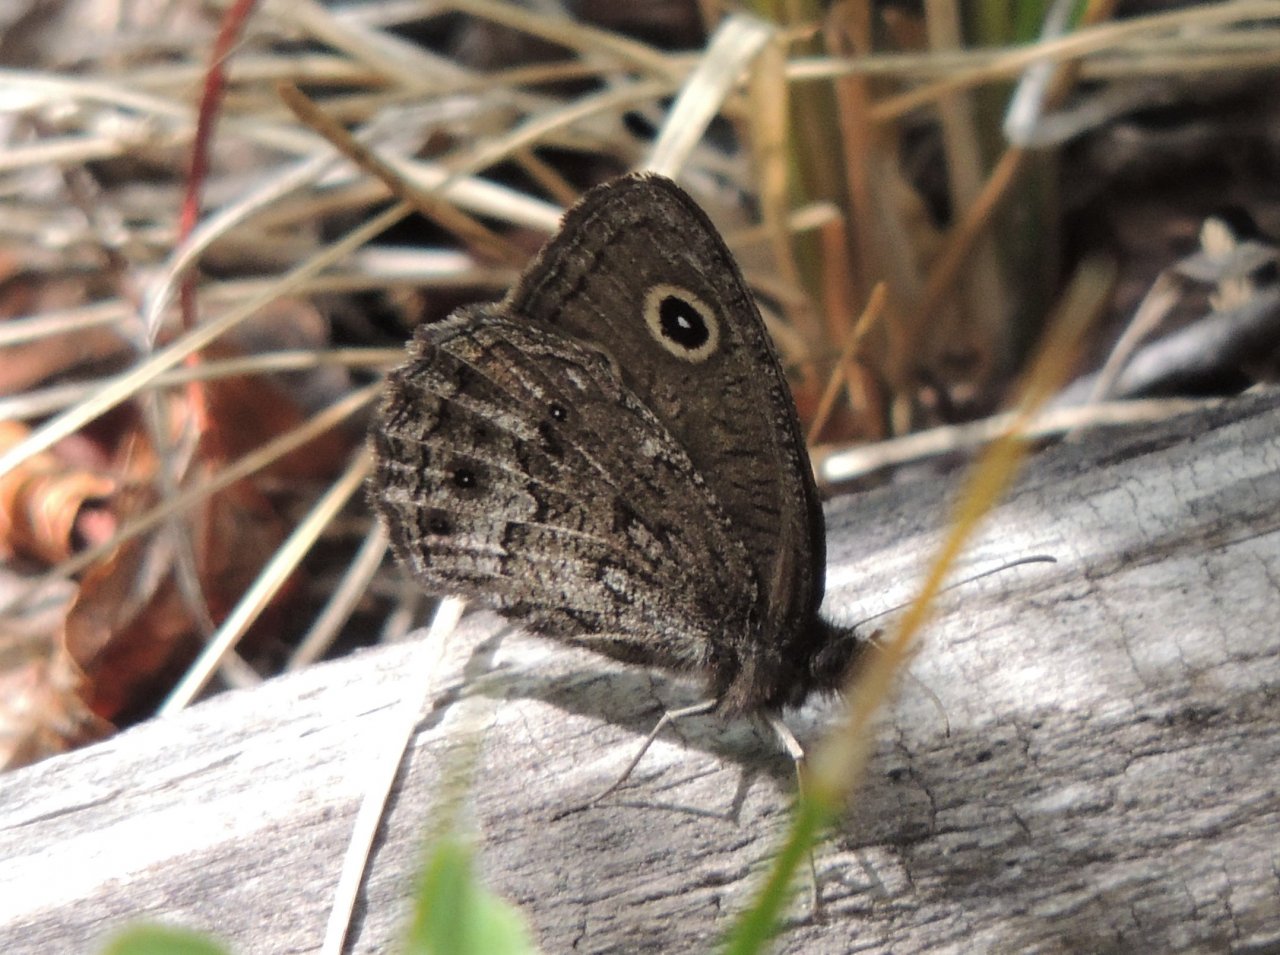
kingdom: Animalia
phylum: Arthropoda
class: Insecta
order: Lepidoptera
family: Nymphalidae
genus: Cercyonis
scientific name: Cercyonis oetus
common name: Small Wood-Nymph
